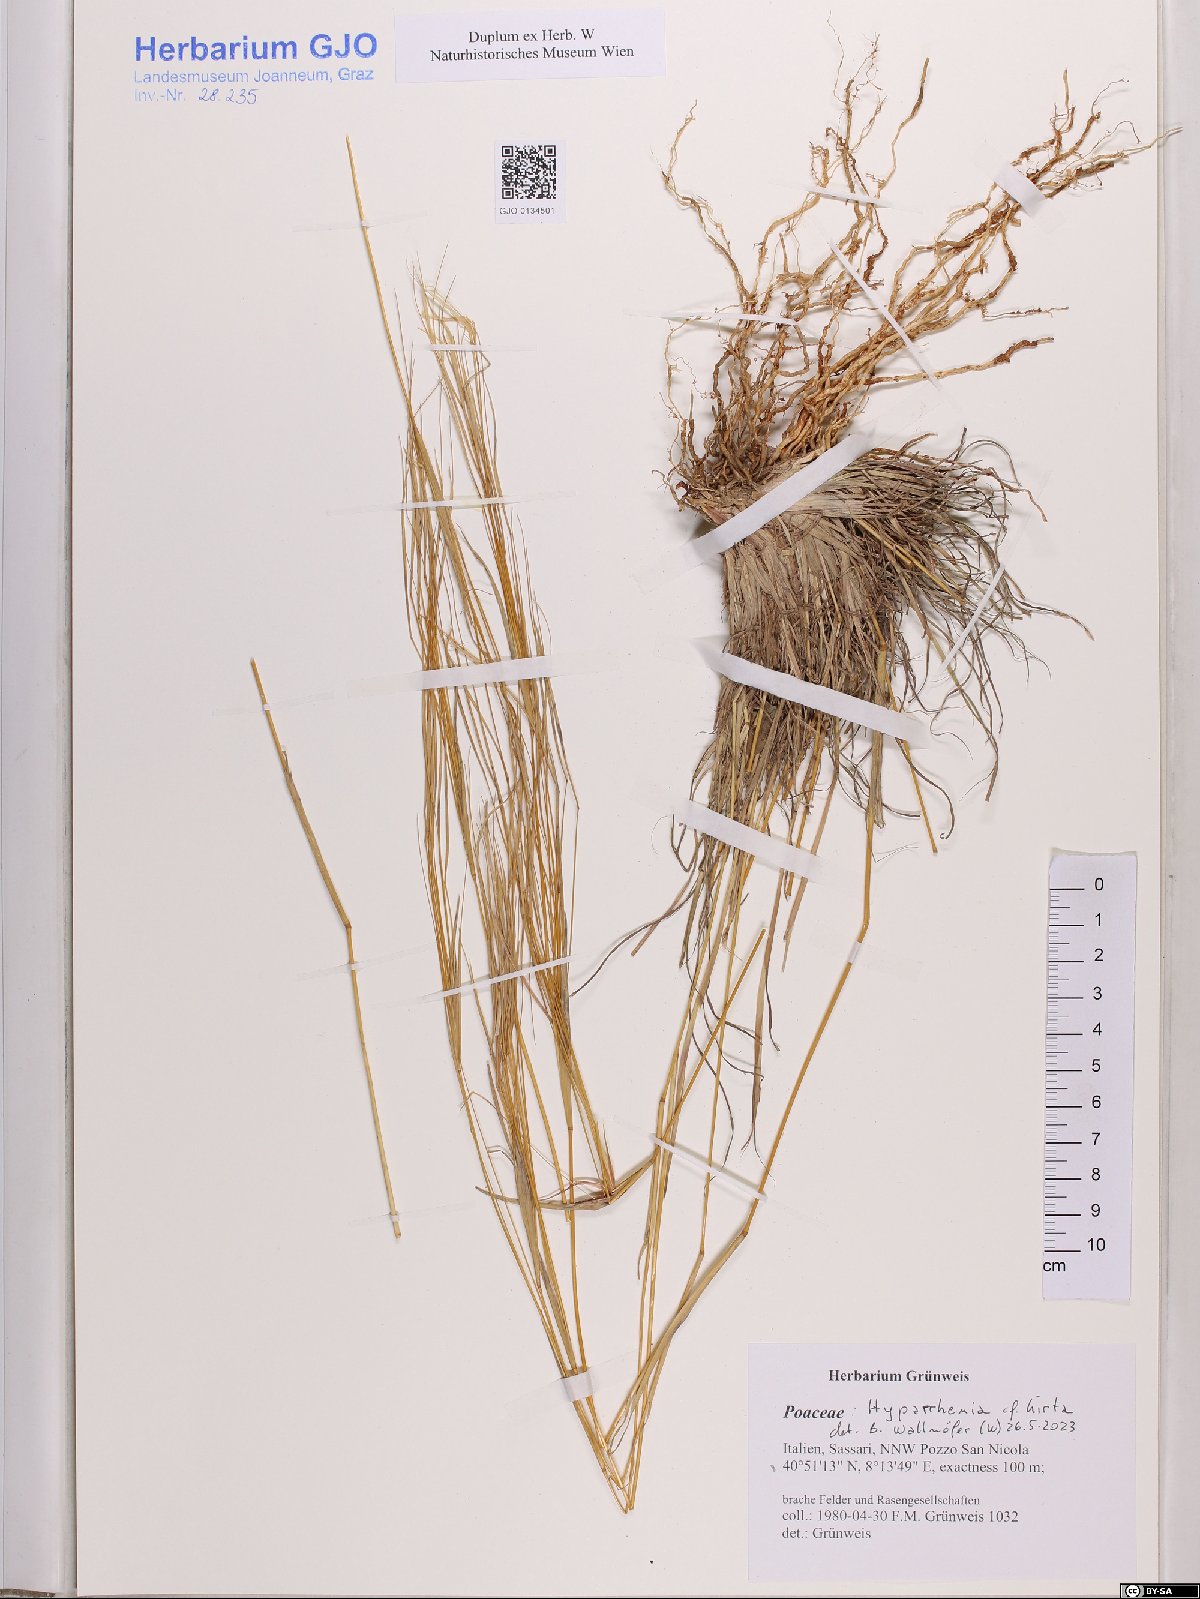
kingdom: Plantae
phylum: Tracheophyta
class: Liliopsida
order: Poales
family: Poaceae
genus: Hyparrhenia
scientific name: Hyparrhenia hirta
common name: Thatching grass
